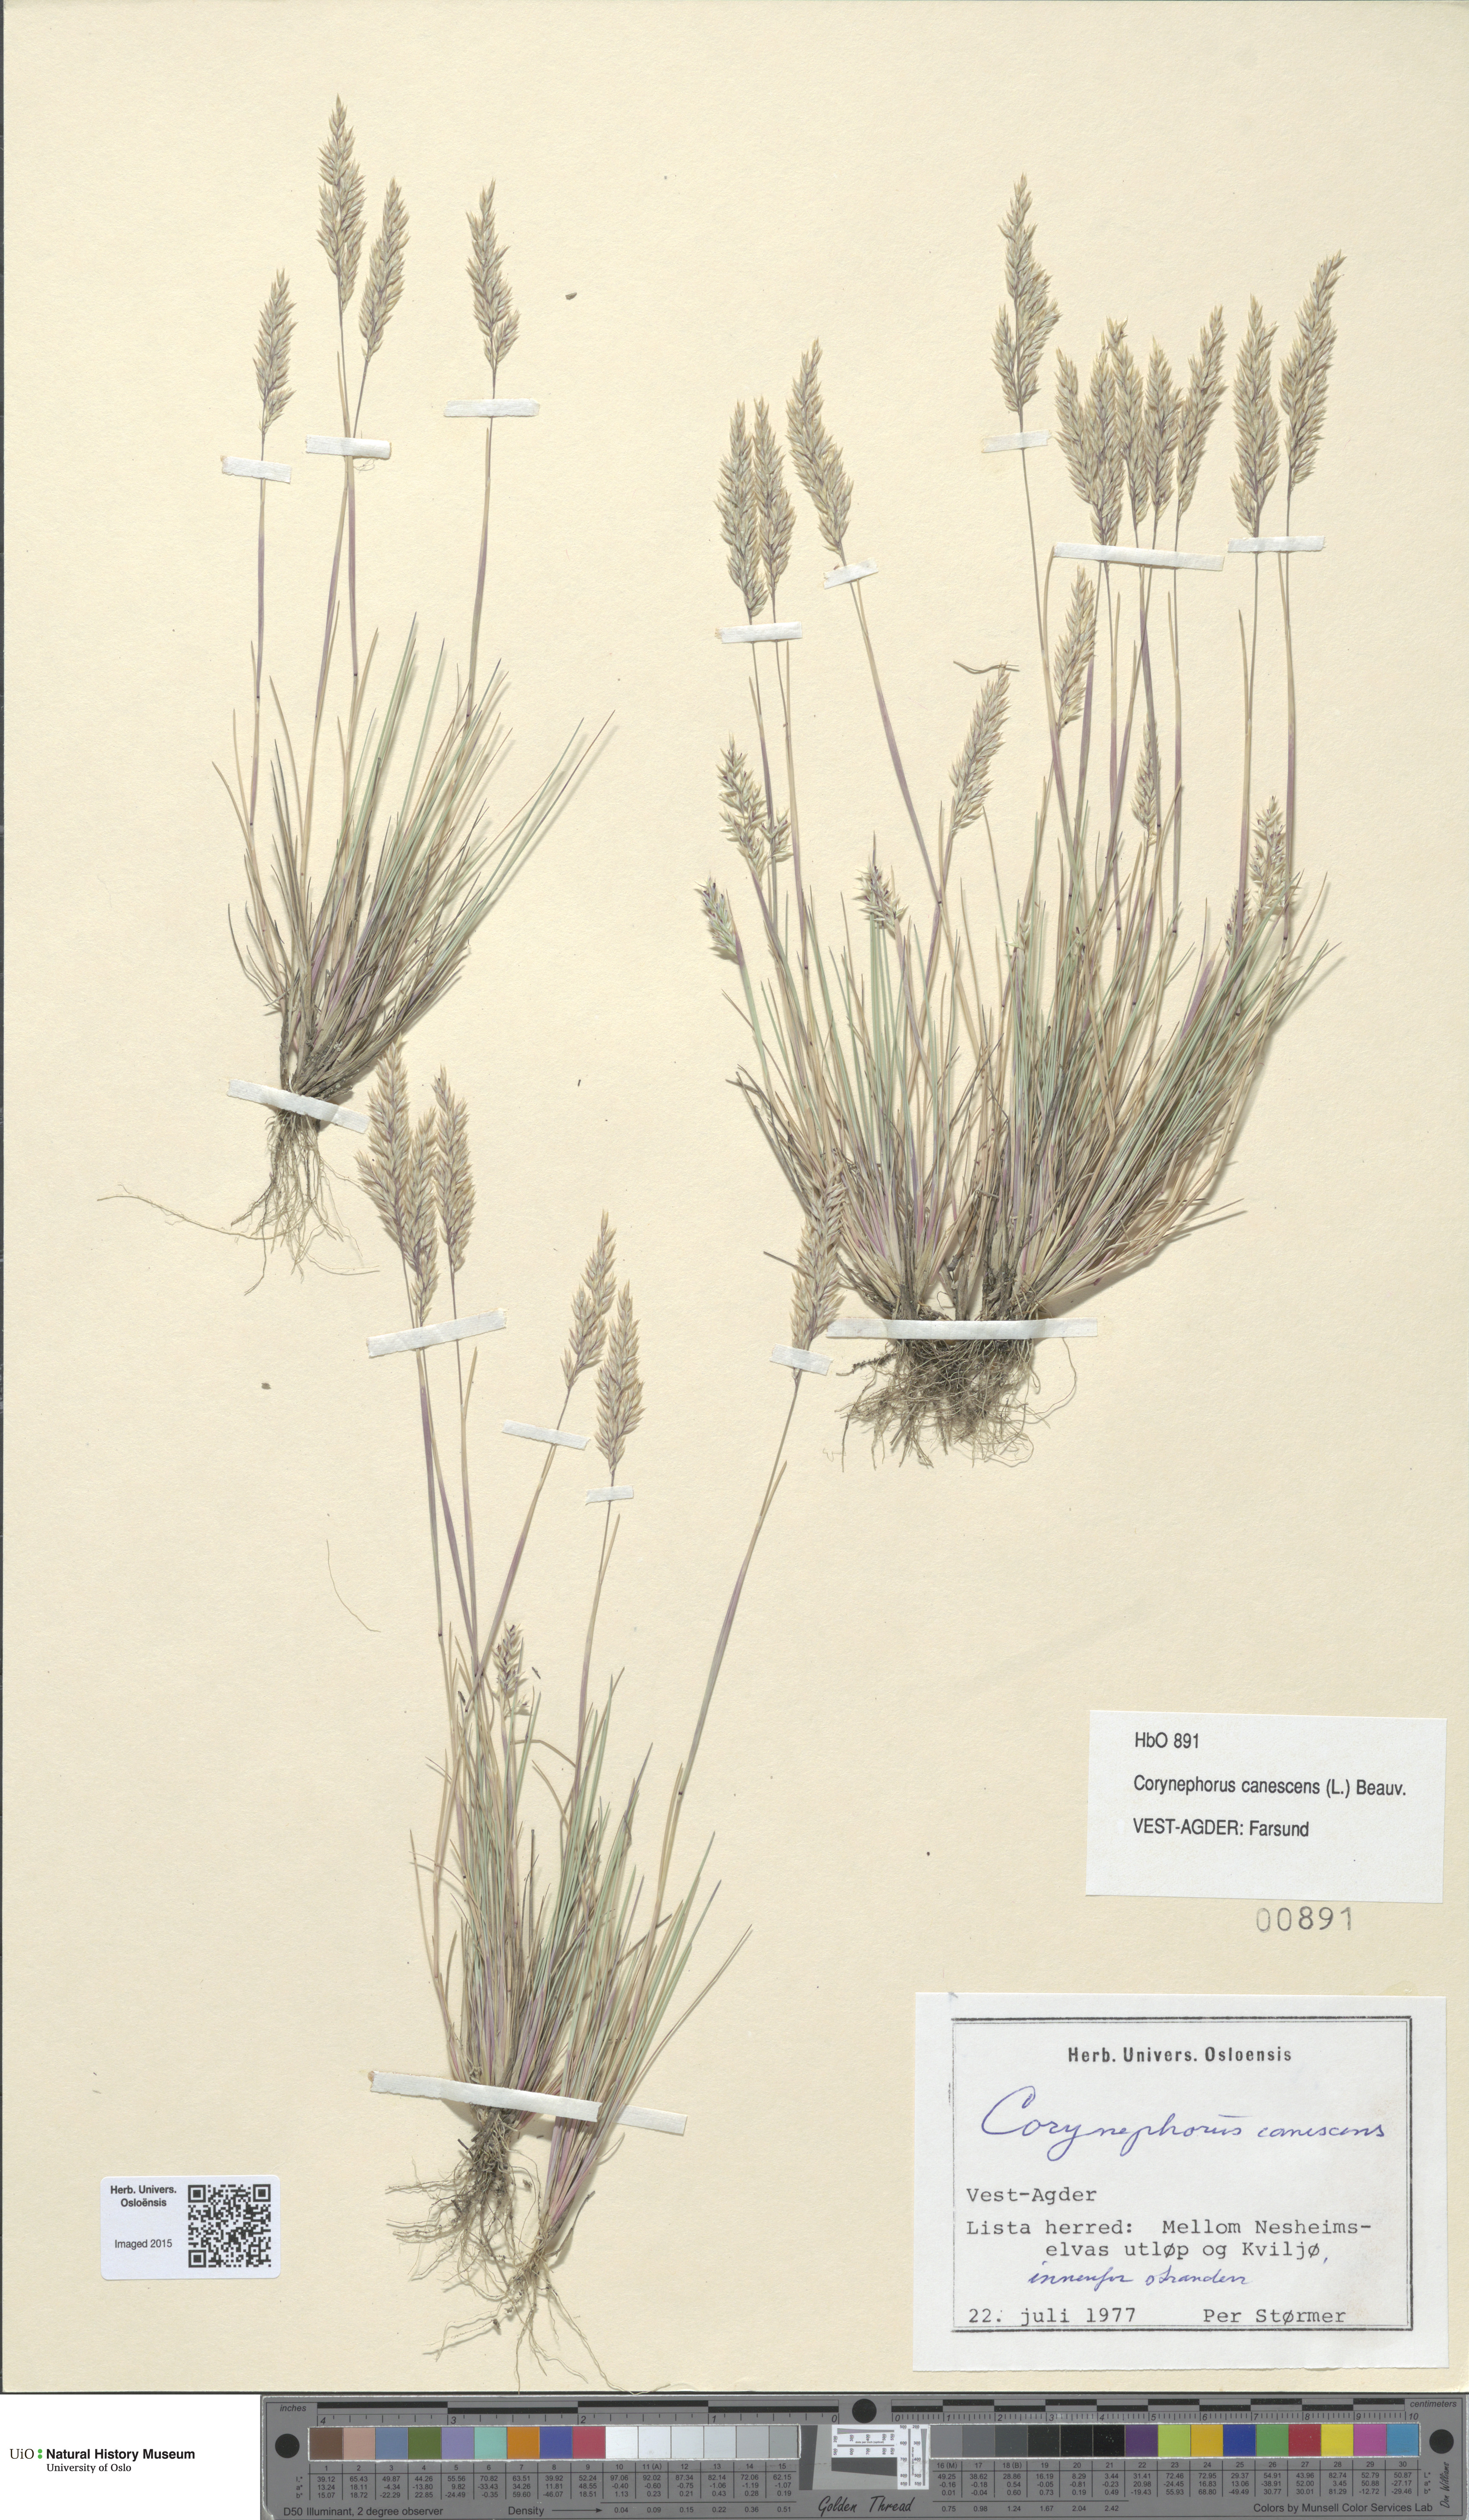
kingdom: Plantae
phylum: Tracheophyta
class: Liliopsida
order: Poales
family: Poaceae
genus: Corynephorus
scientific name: Corynephorus canescens
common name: Grey hair-grass
